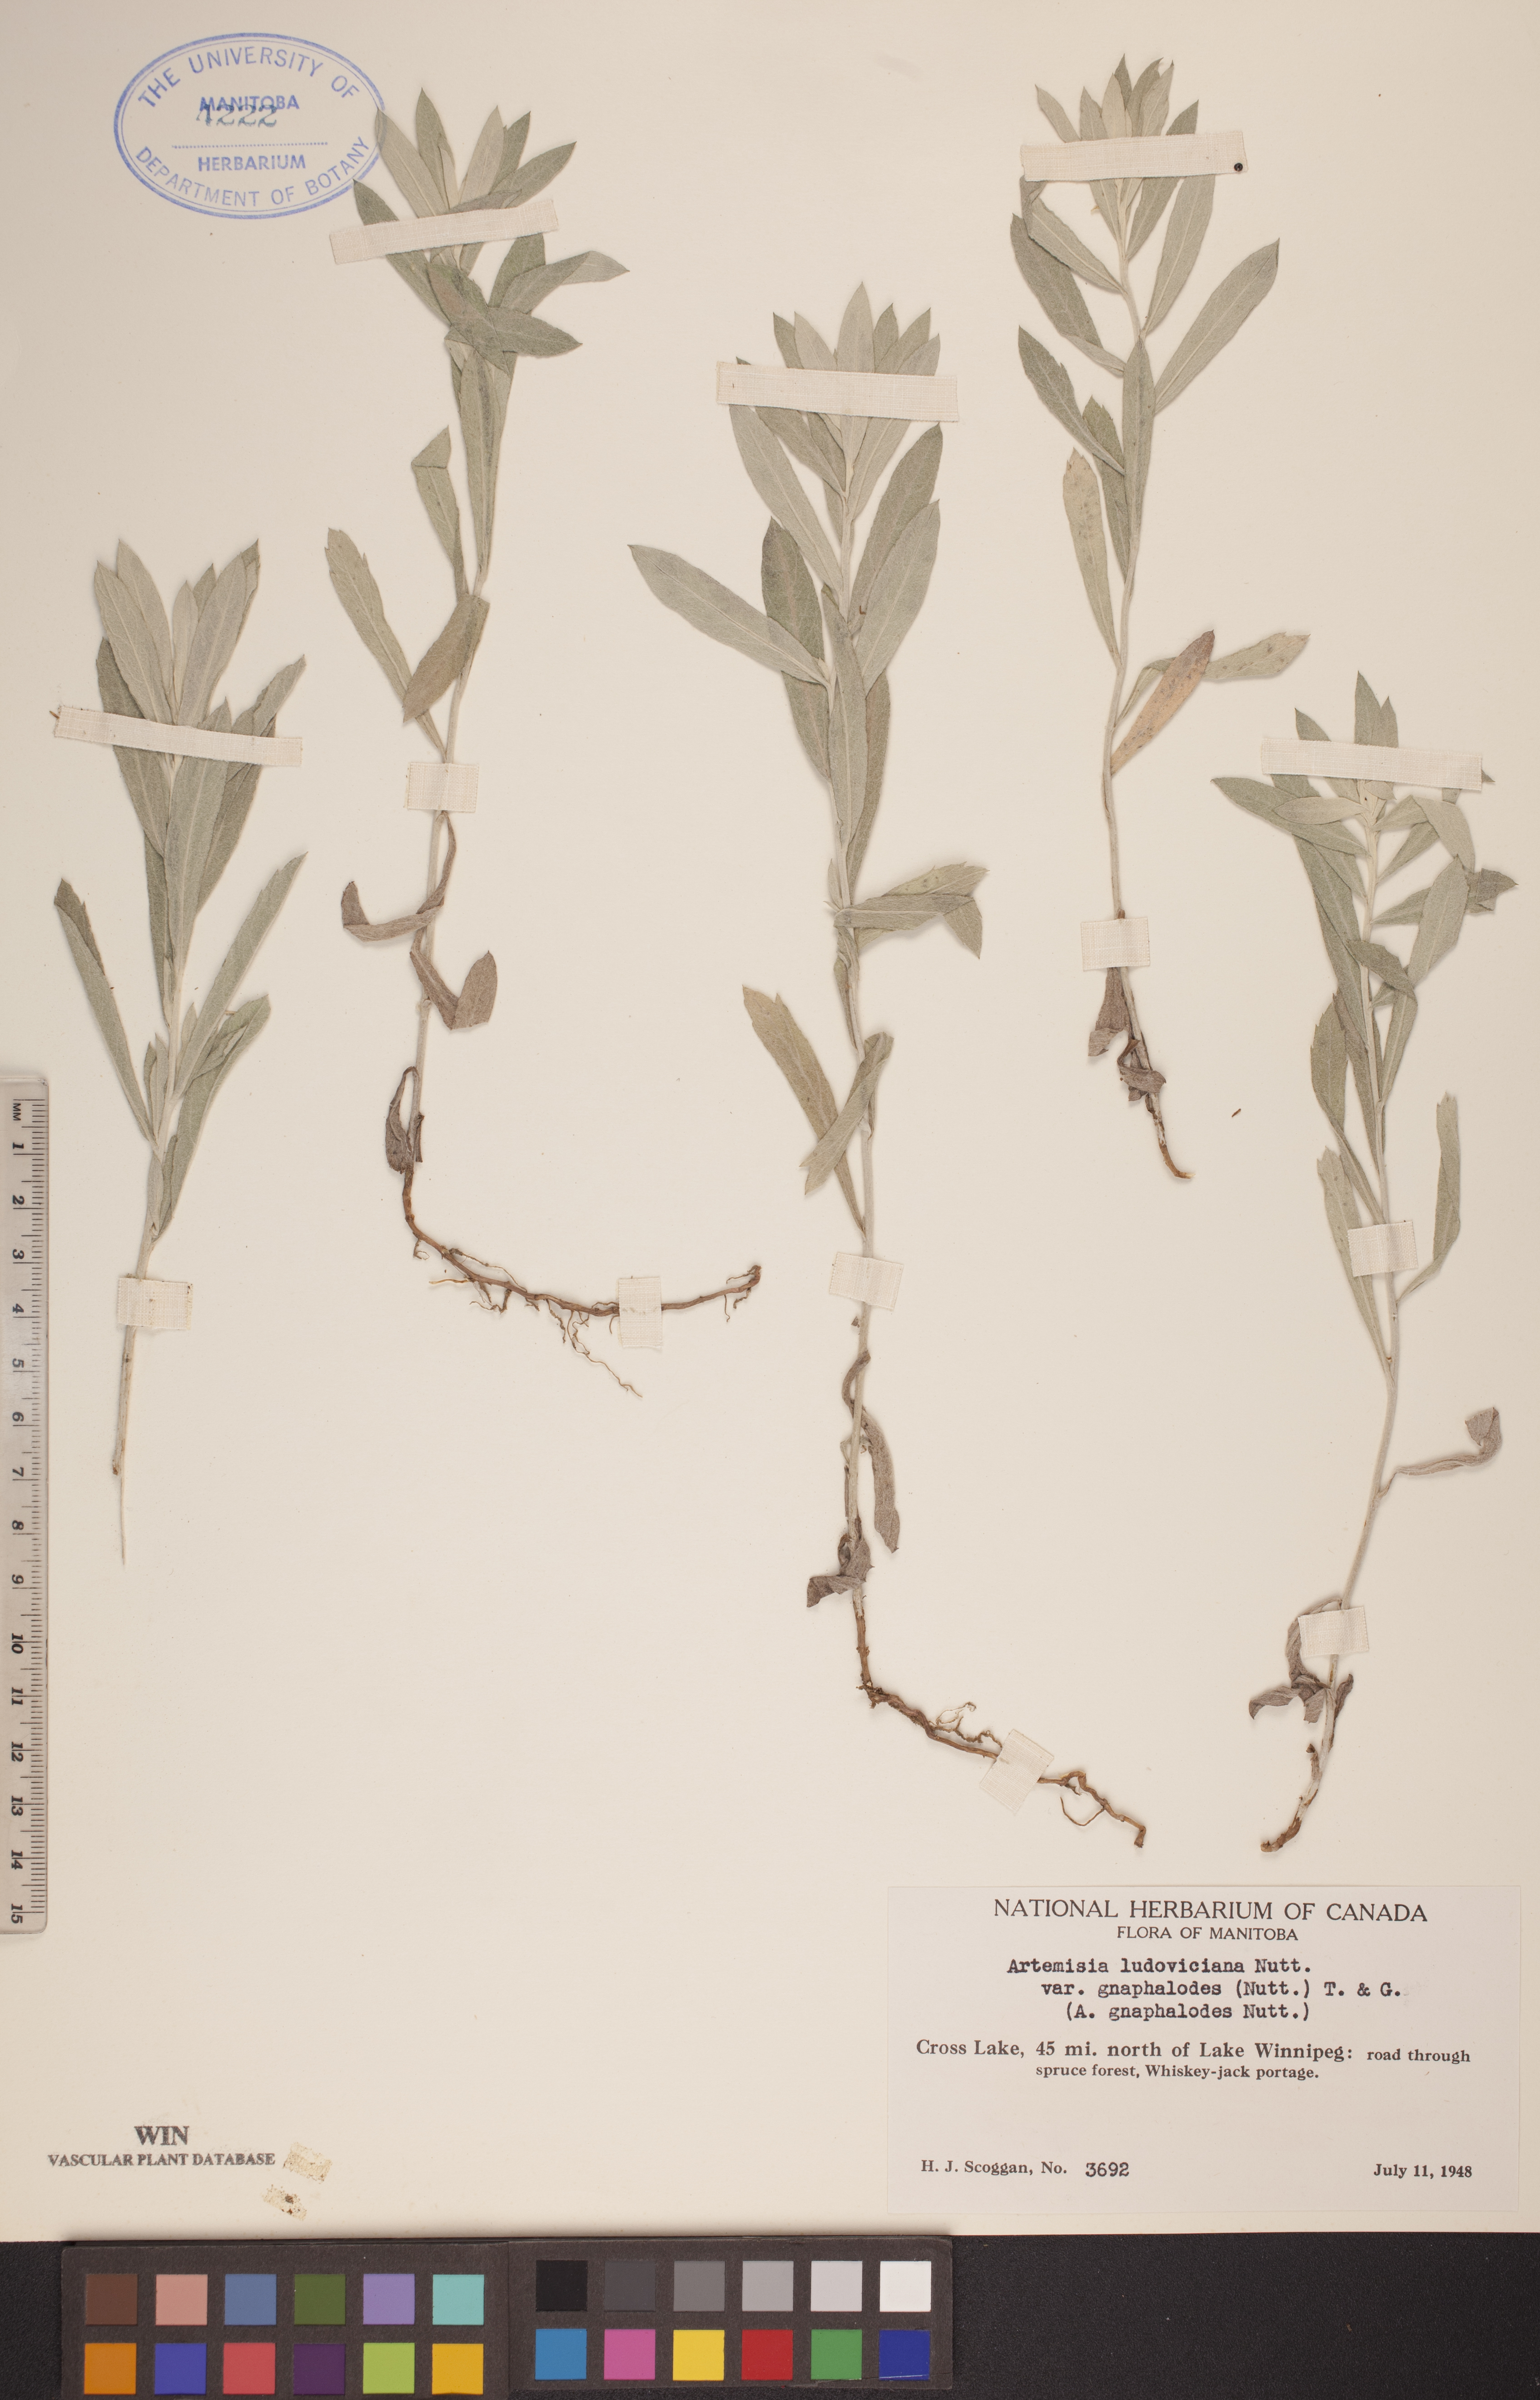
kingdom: Plantae
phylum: Tracheophyta
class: Magnoliopsida
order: Asterales
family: Asteraceae
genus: Artemisia
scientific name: Artemisia ludoviciana
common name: Western mugwort
